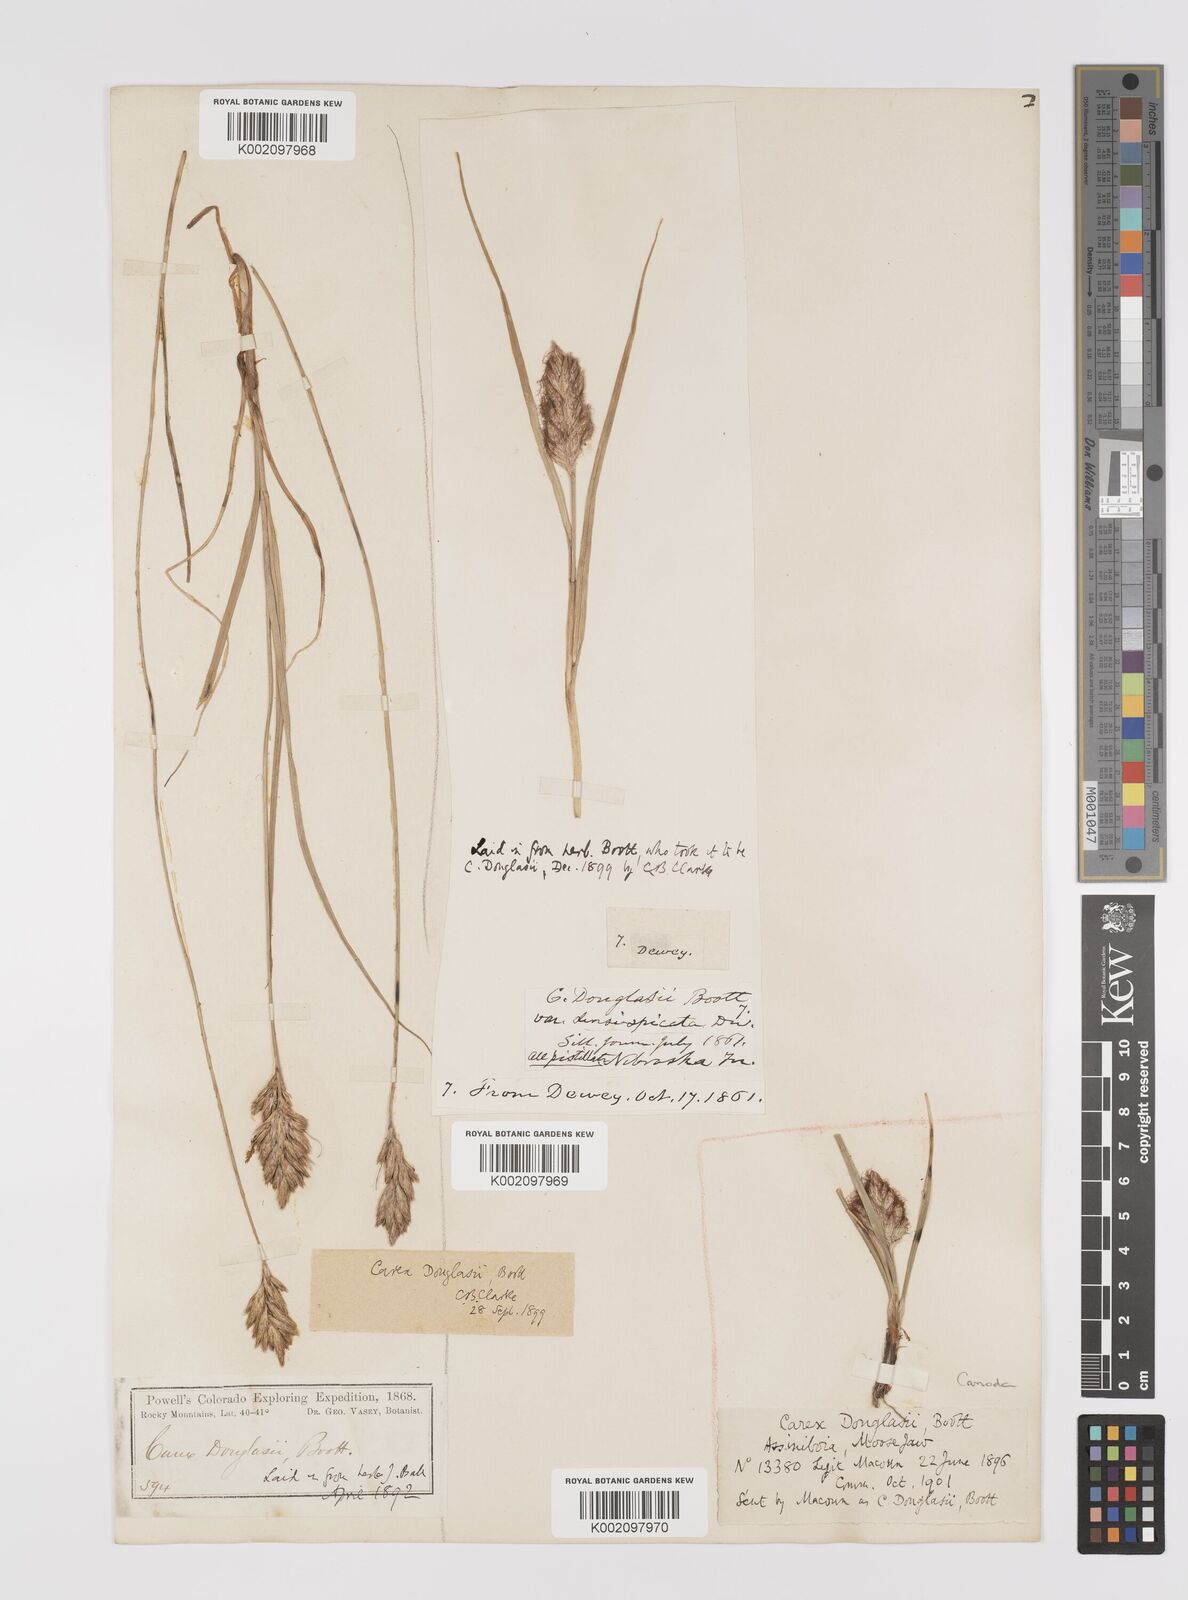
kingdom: Plantae
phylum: Tracheophyta
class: Liliopsida
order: Poales
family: Cyperaceae
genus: Carex
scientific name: Carex douglasii
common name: Douglas' sedge
